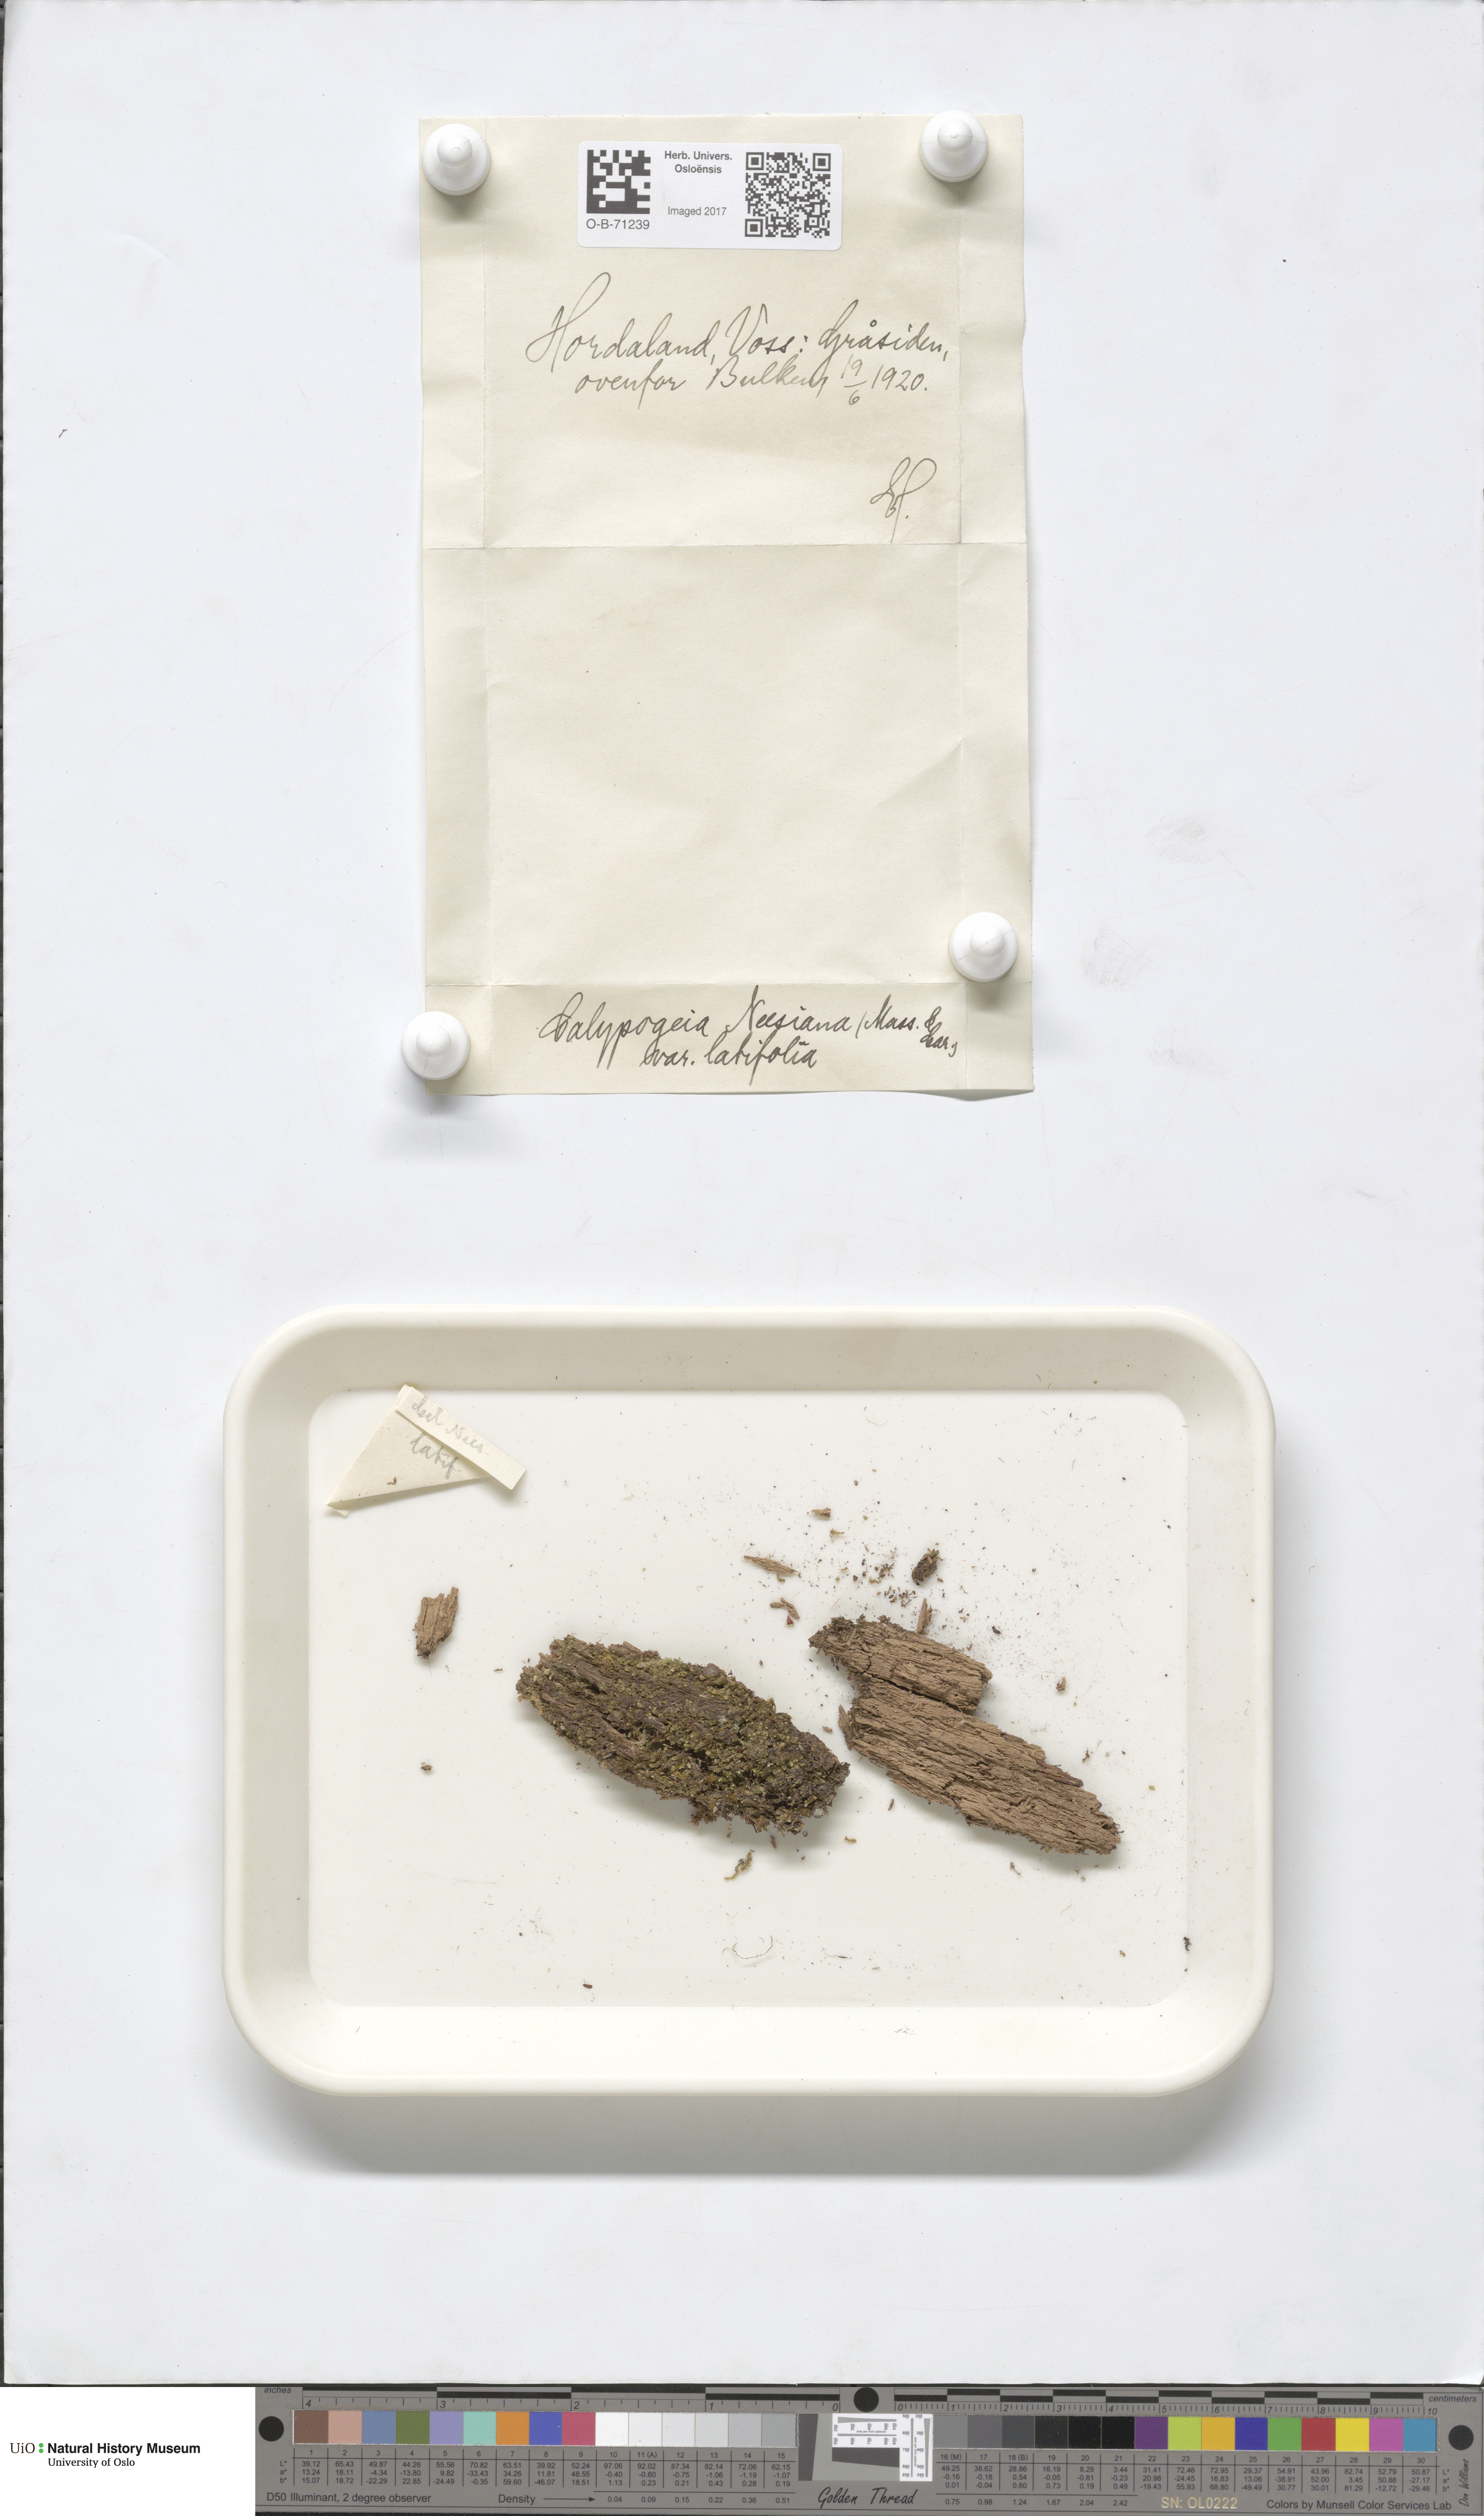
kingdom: Plantae
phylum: Marchantiophyta
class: Jungermanniopsida
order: Jungermanniales
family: Calypogeiaceae
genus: Calypogeia
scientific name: Calypogeia neesiana
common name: Nees  pouchwort
